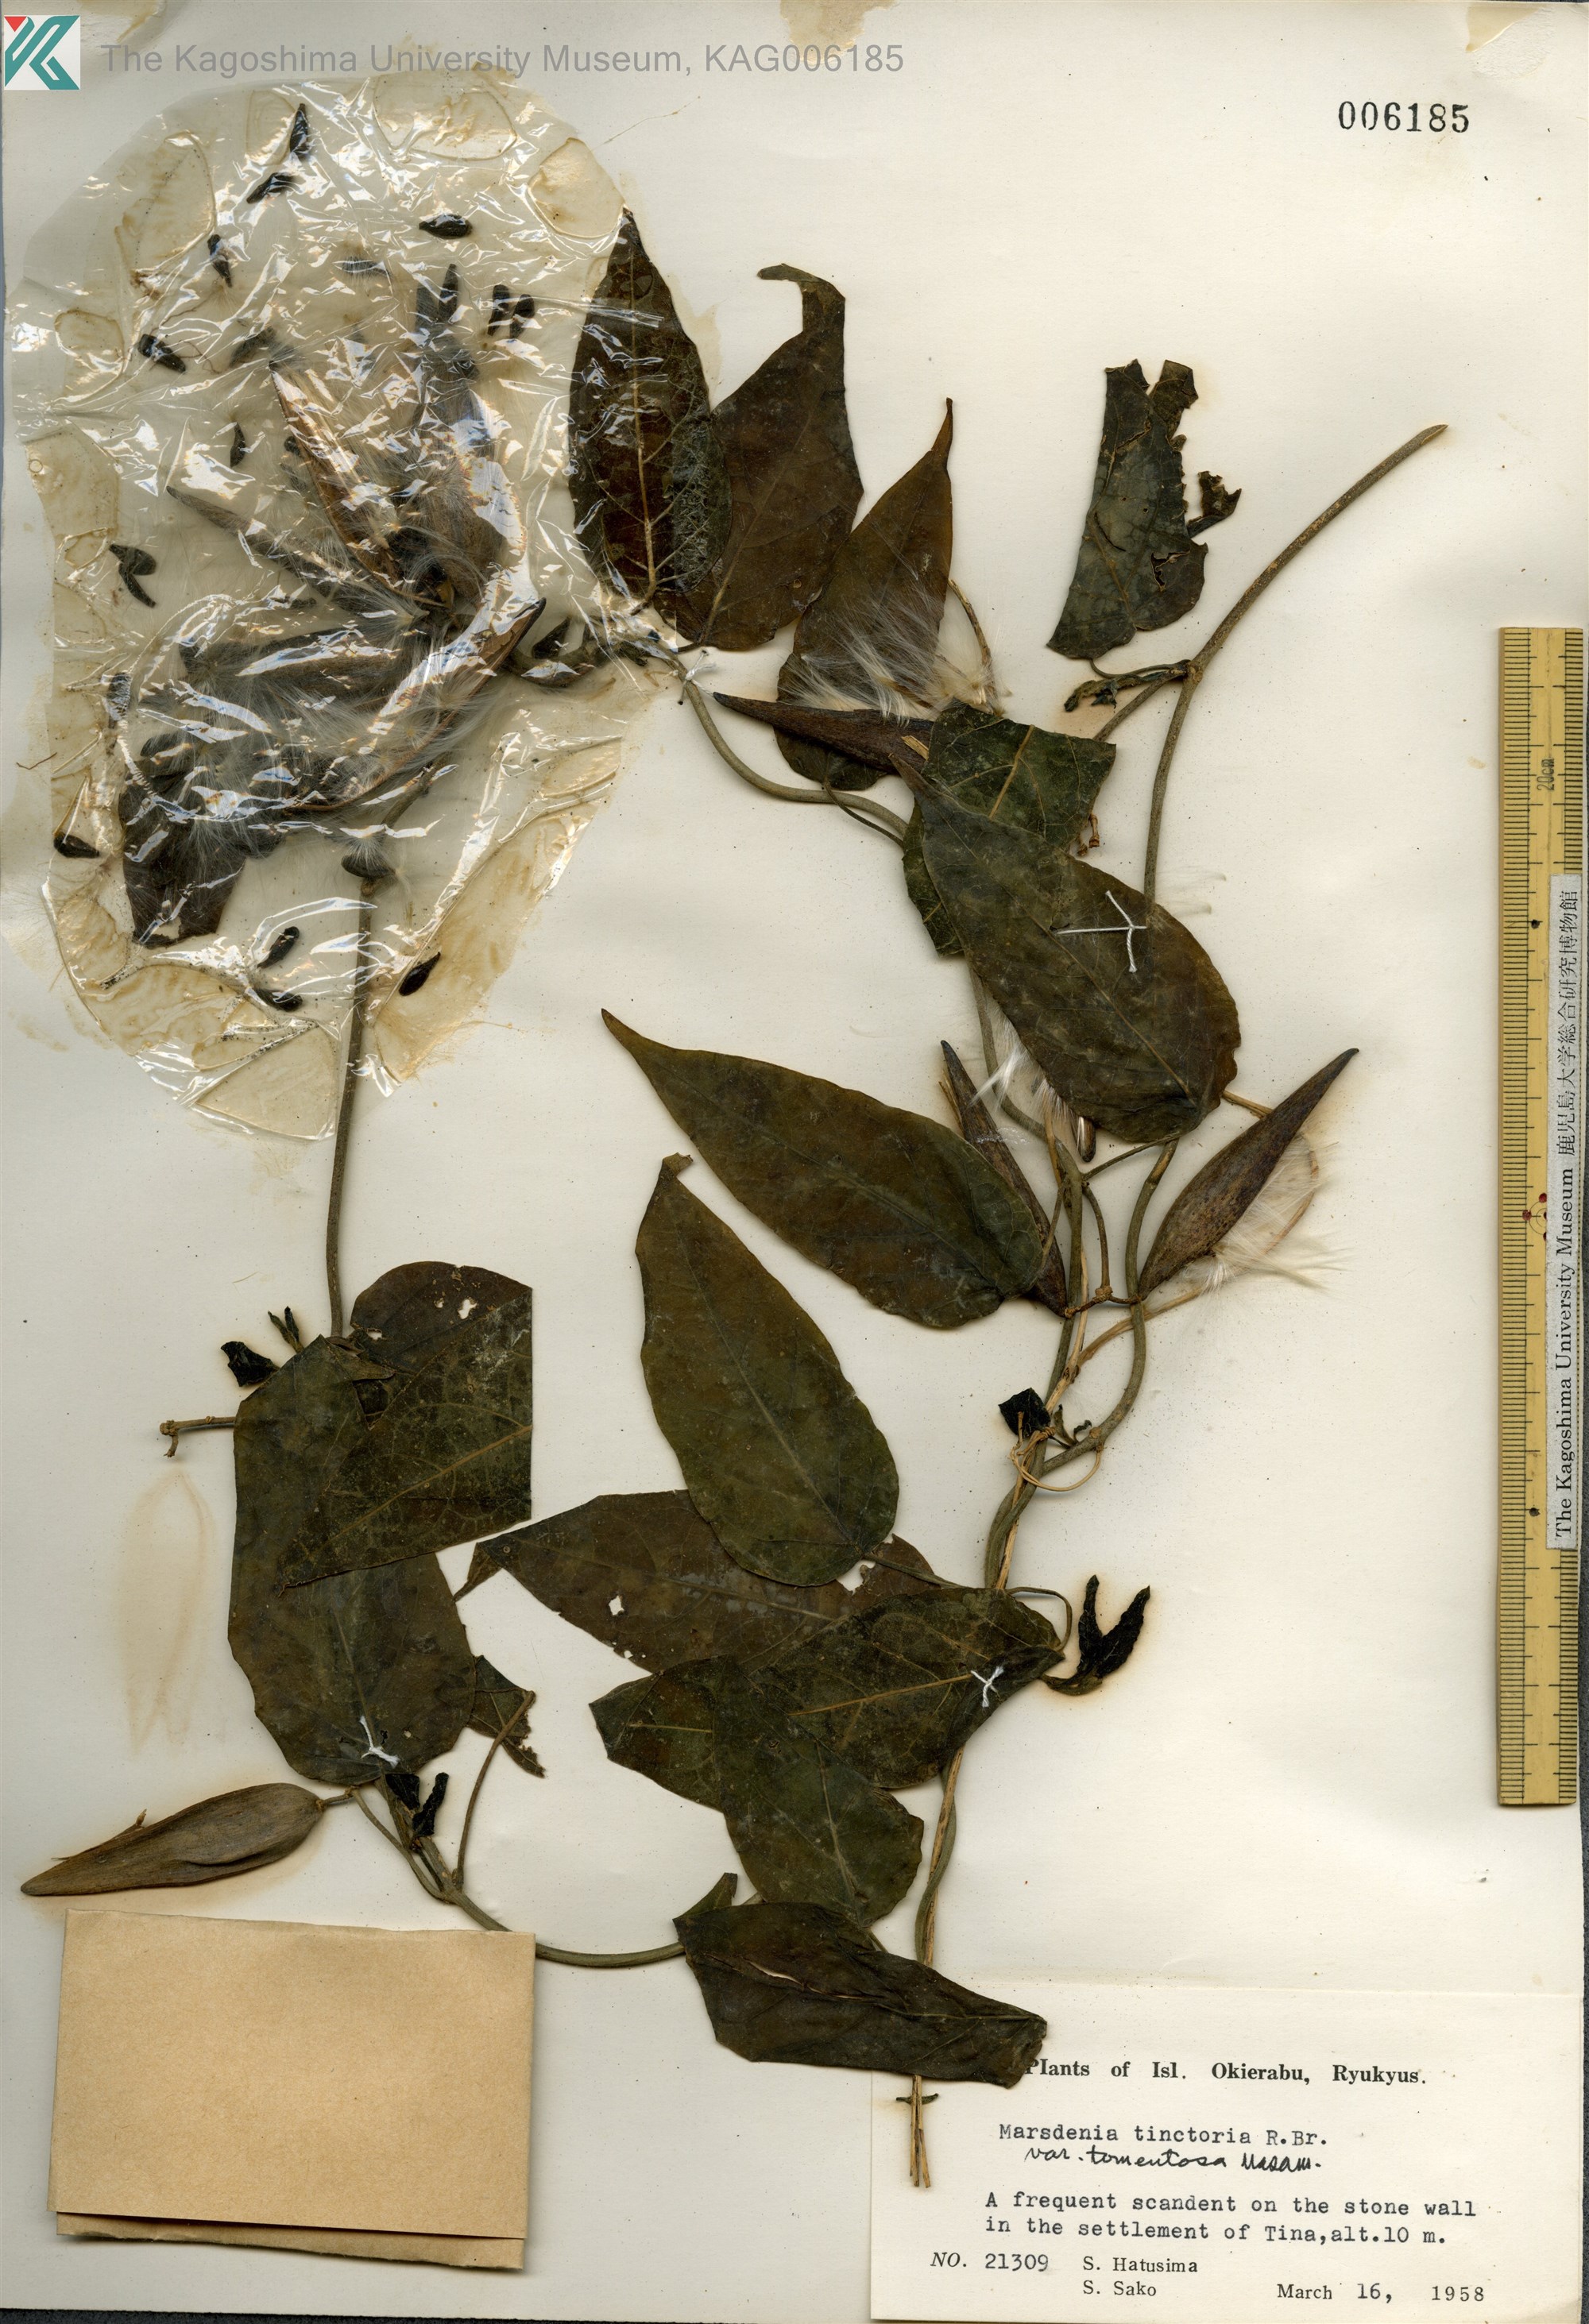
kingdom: Plantae
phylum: Tracheophyta
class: Magnoliopsida
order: Gentianales
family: Apocynaceae
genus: Marsdenia
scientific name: Marsdenia tinctoria
